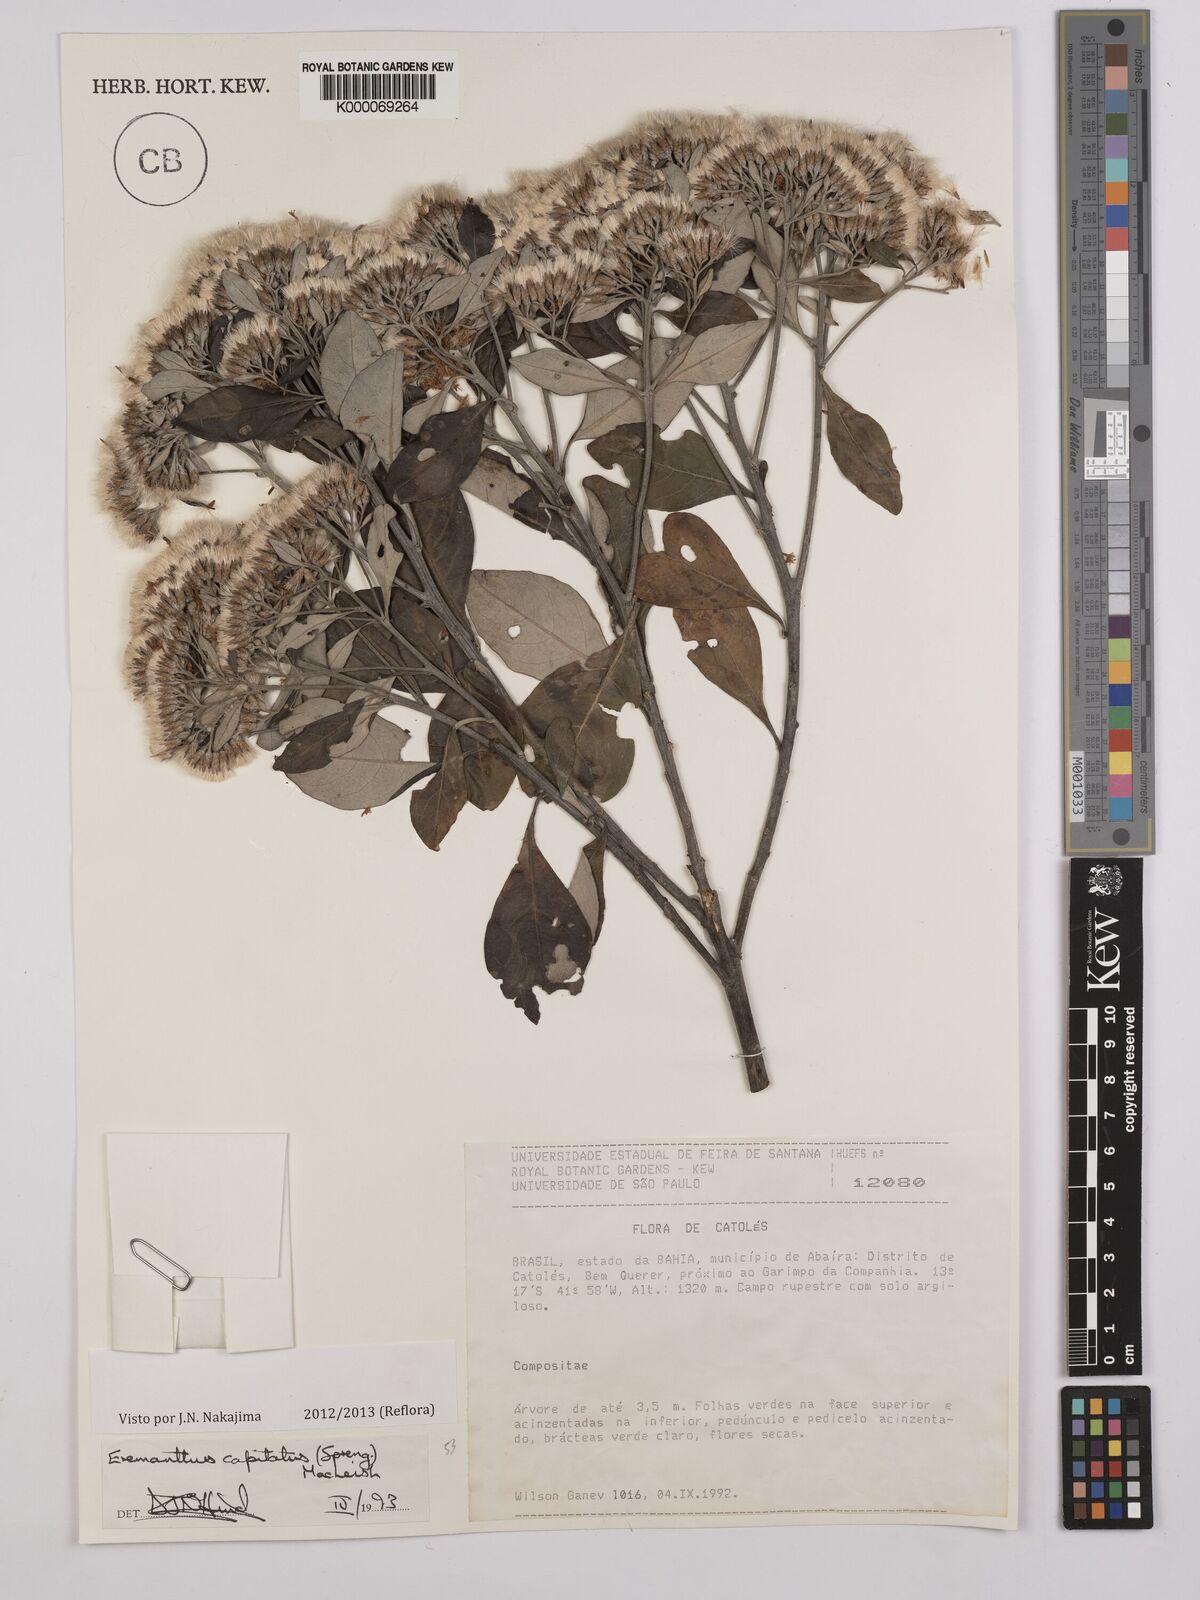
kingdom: Plantae
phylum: Tracheophyta
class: Magnoliopsida
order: Asterales
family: Asteraceae
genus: Eremanthus
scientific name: Eremanthus capitatus
